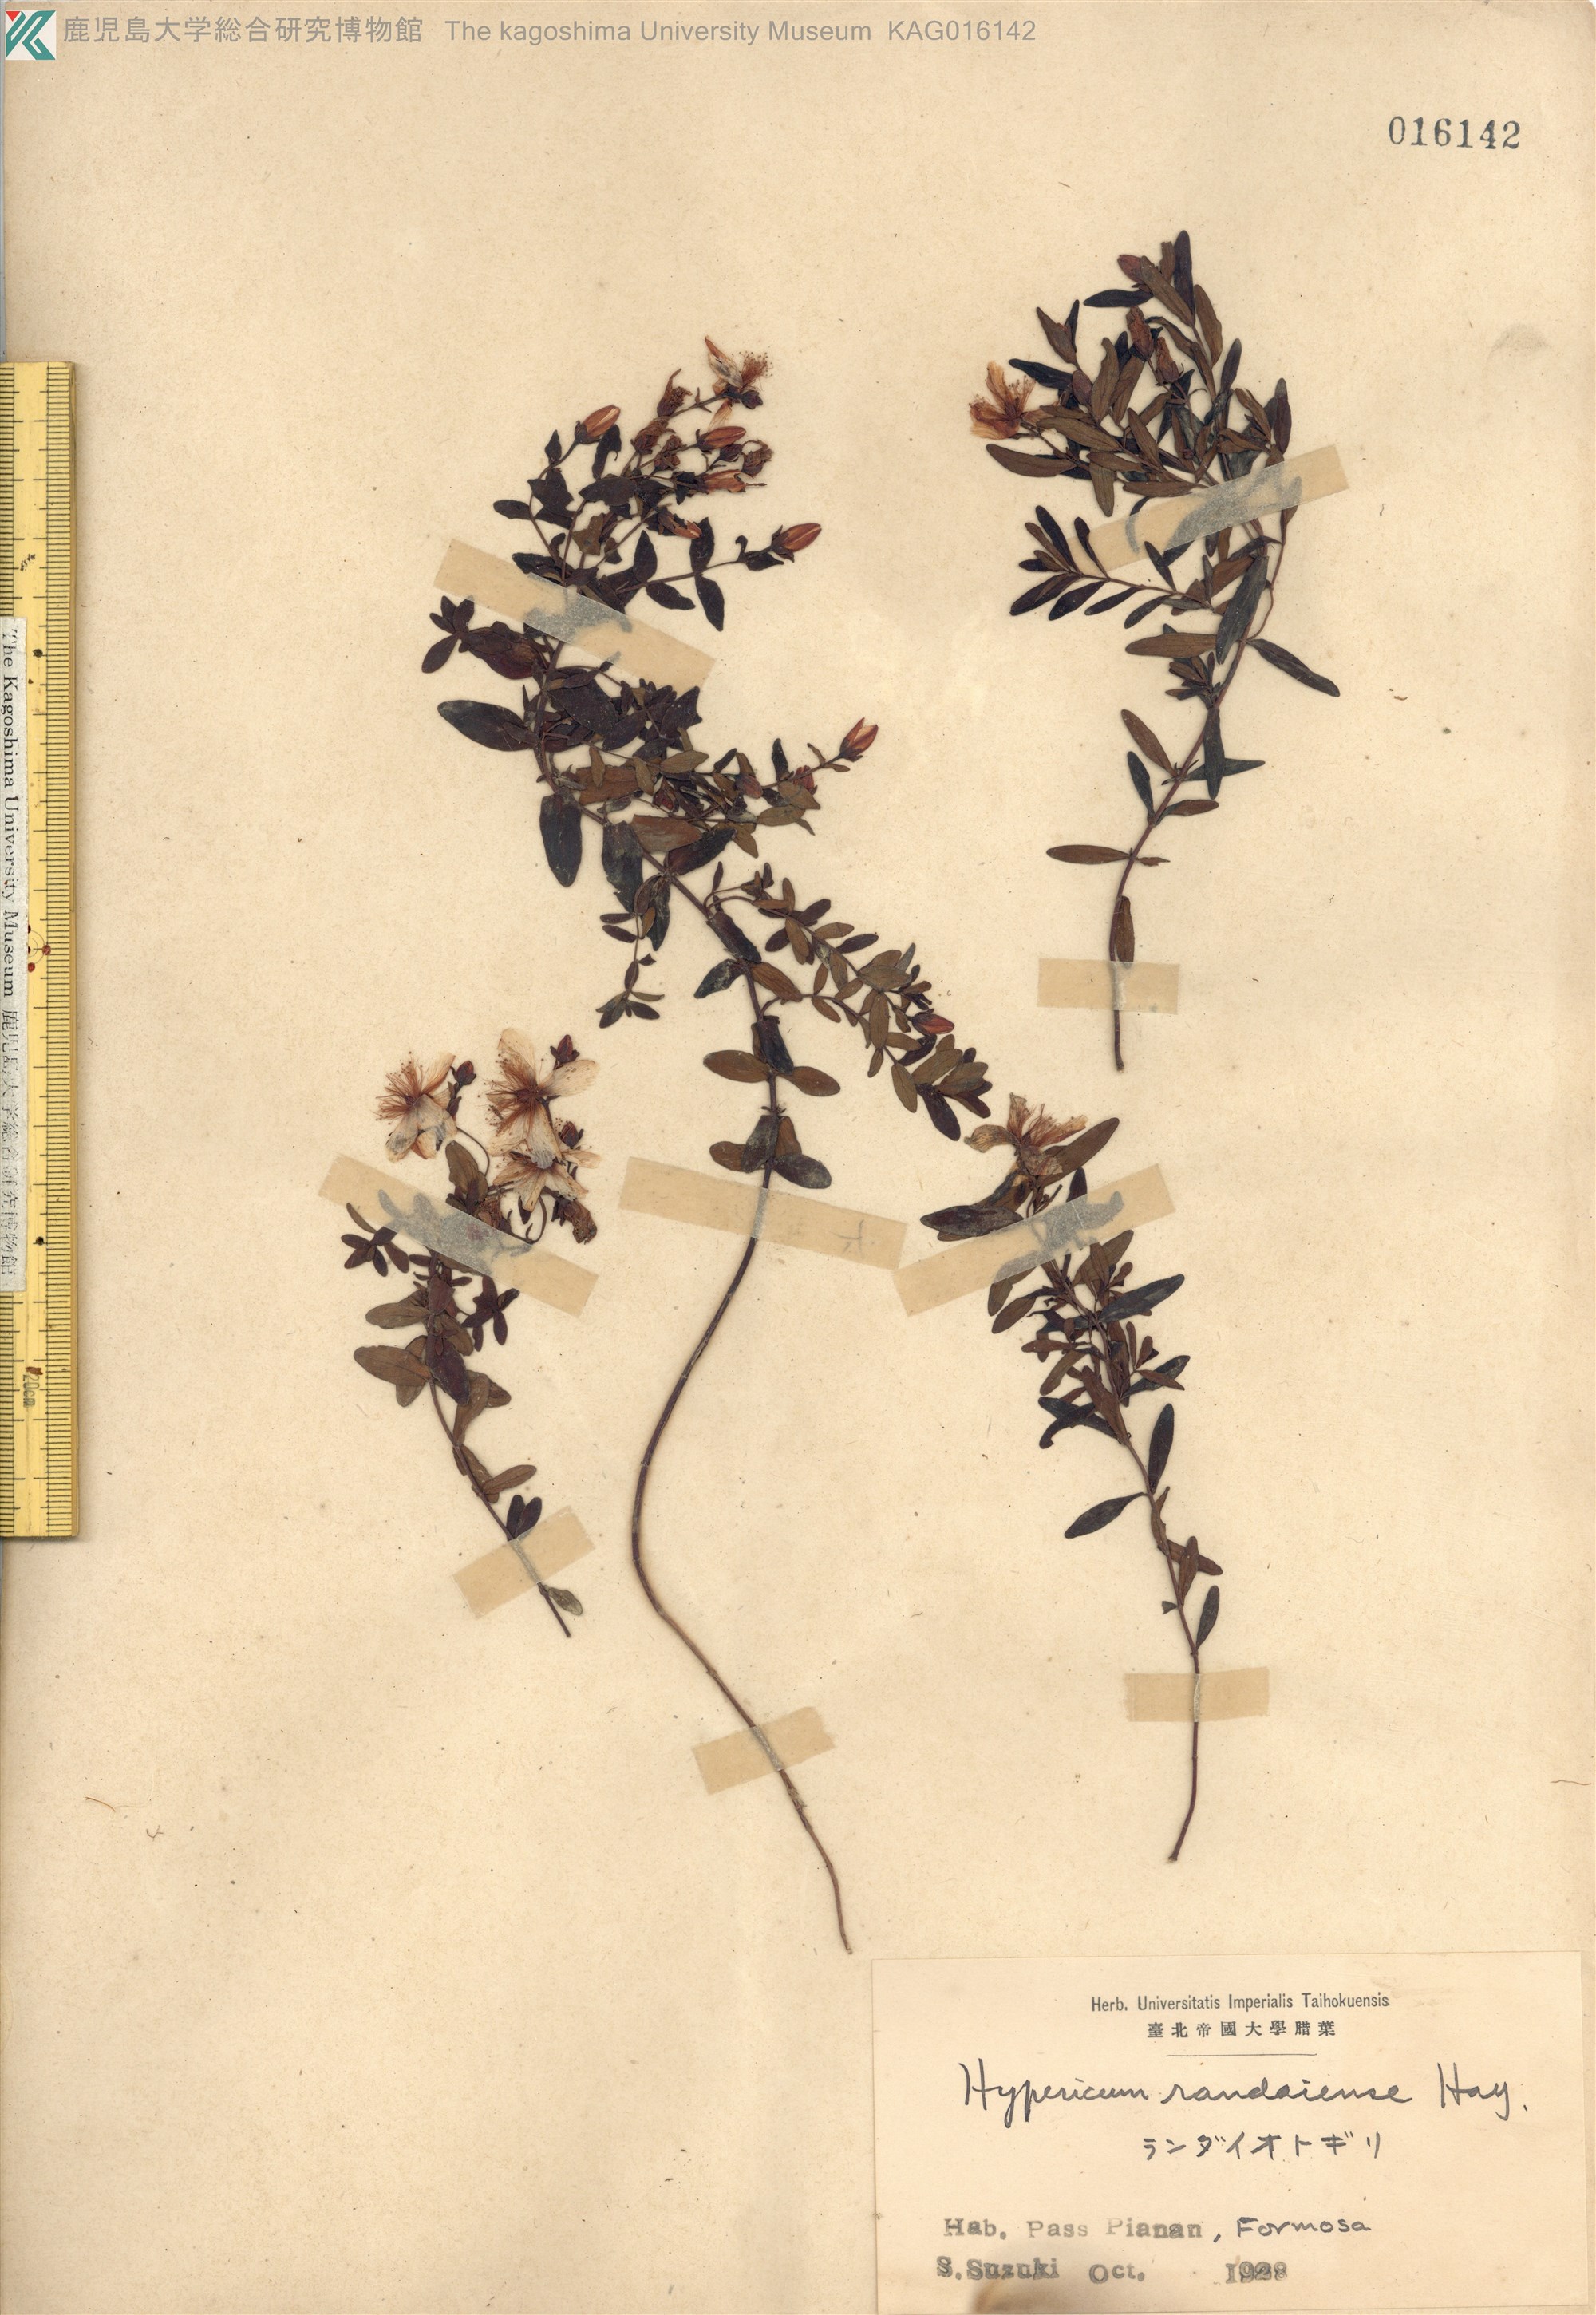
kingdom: Plantae
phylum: Tracheophyta
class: Magnoliopsida
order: Malpighiales
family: Hypericaceae
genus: Hypericum
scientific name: Hypericum nagasawae
